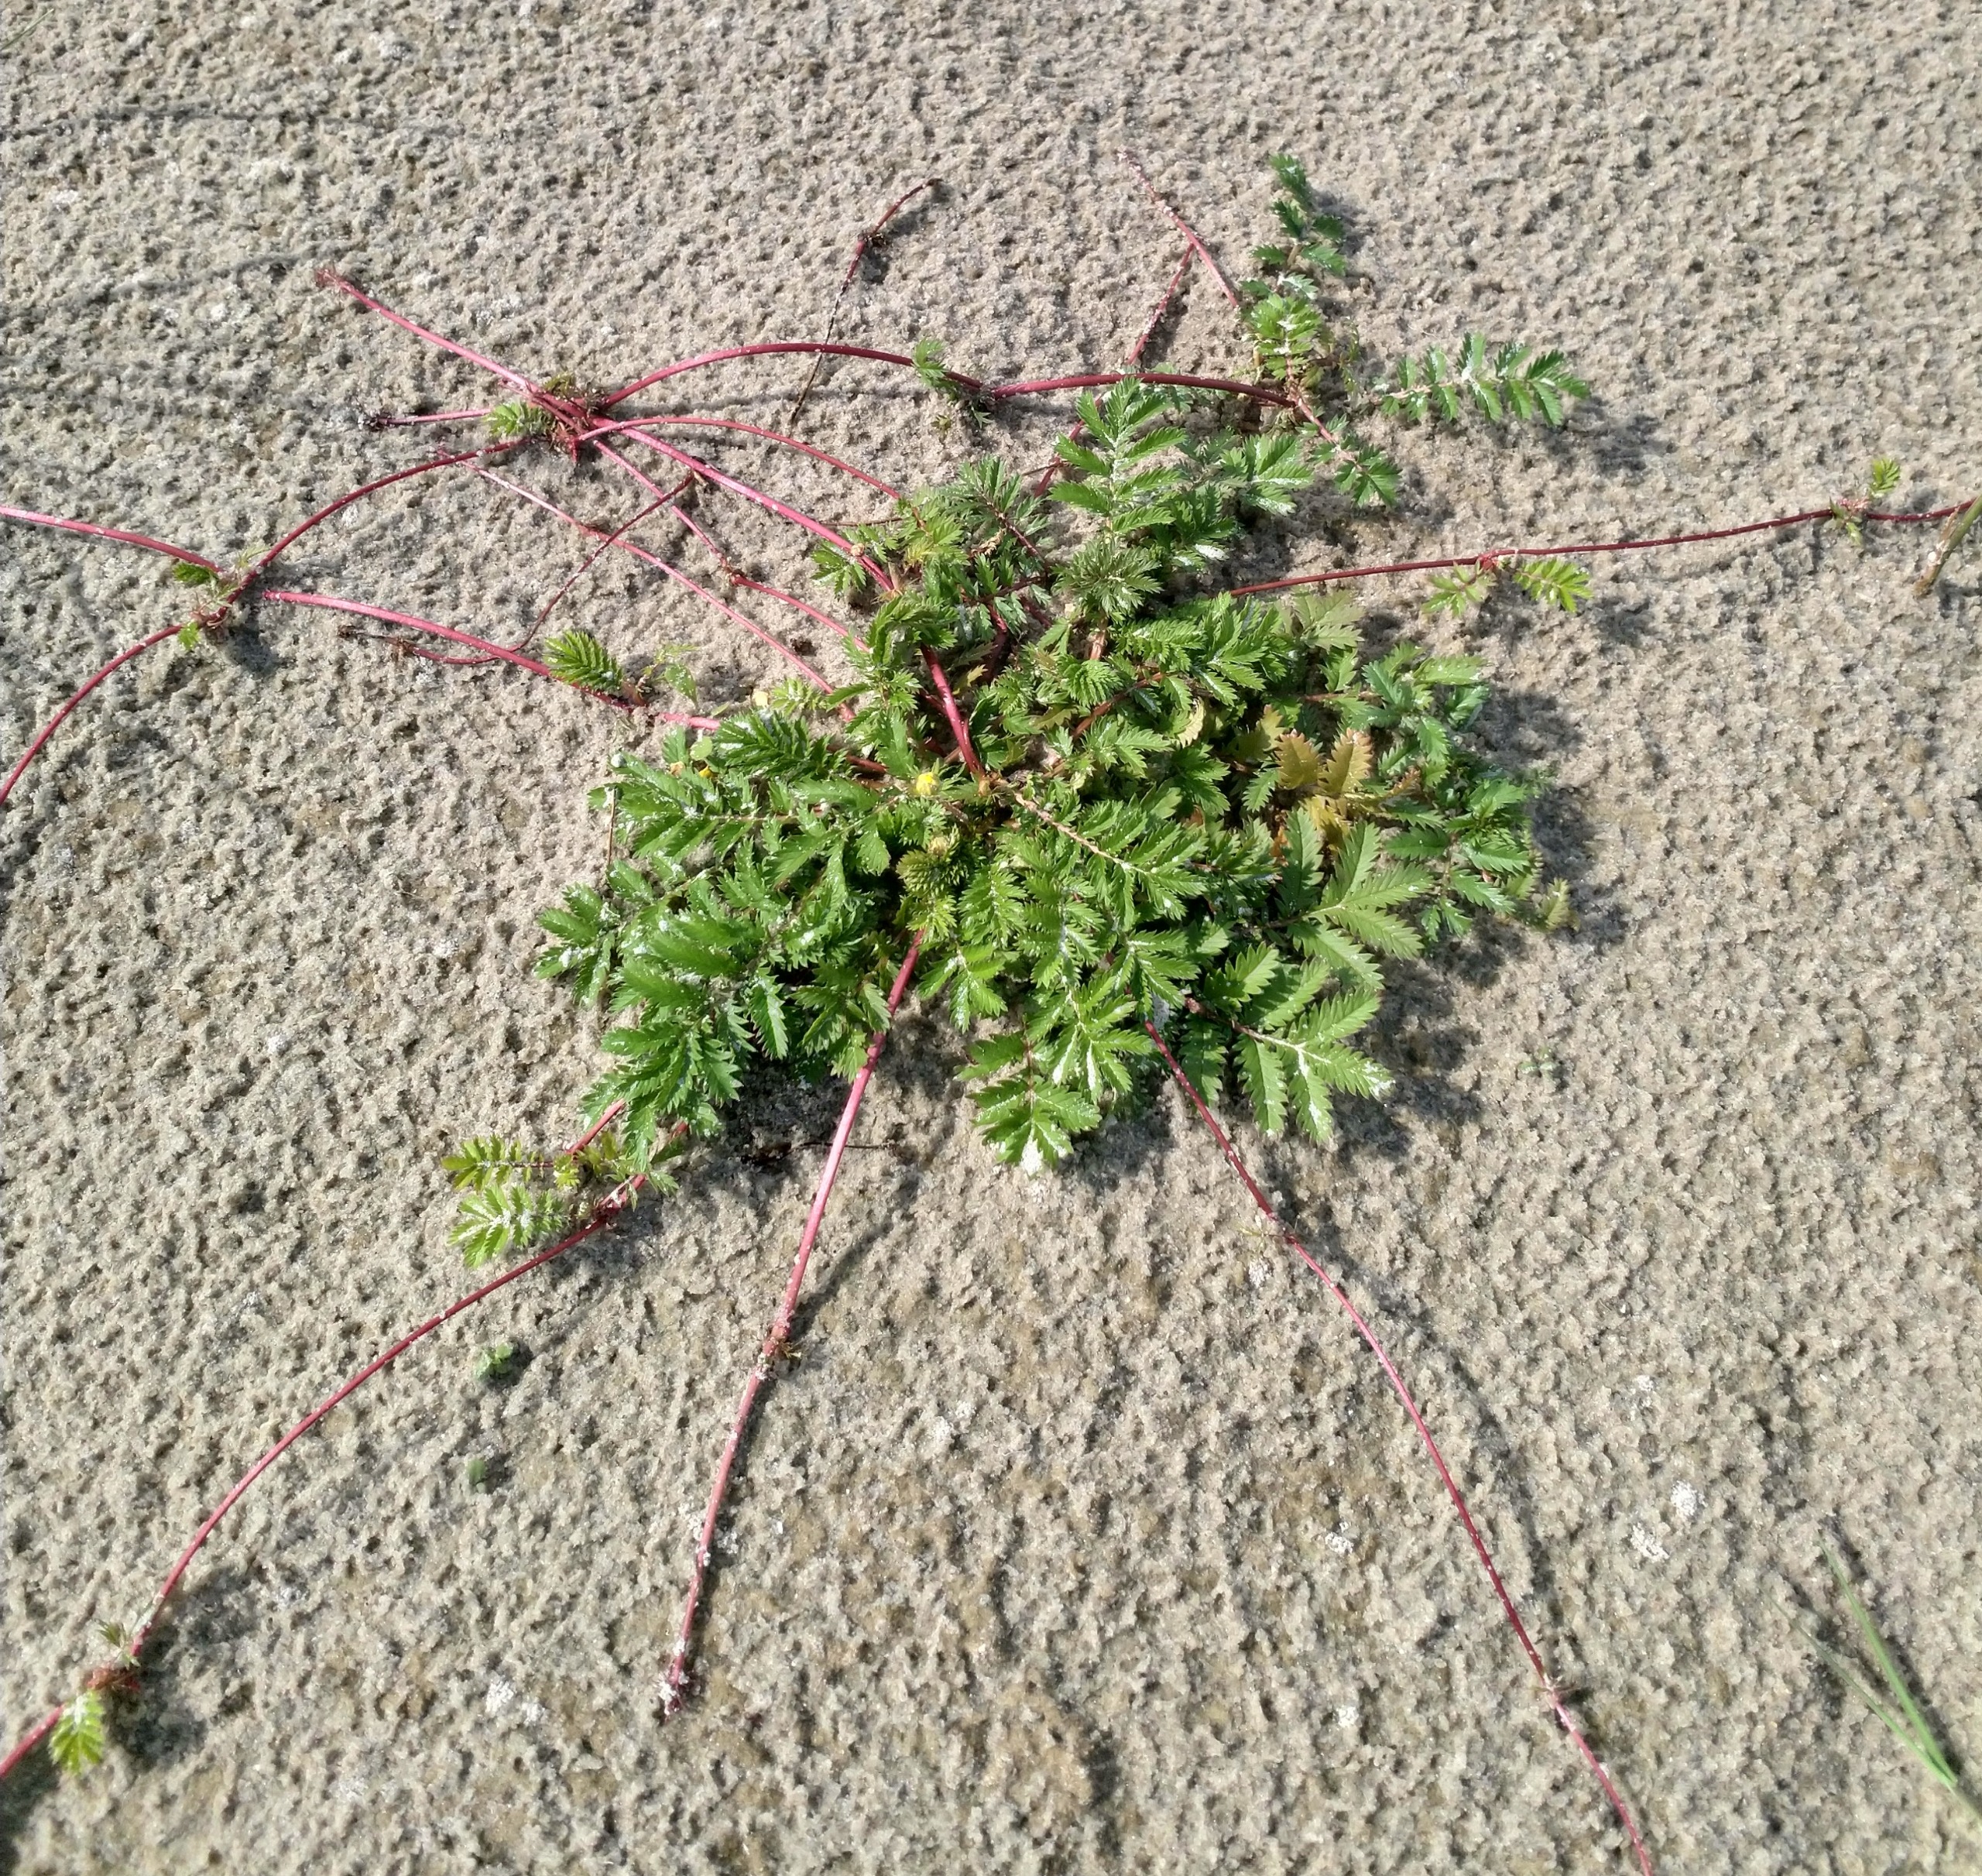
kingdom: Plantae
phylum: Tracheophyta
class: Magnoliopsida
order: Rosales
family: Rosaceae
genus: Argentina
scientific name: Argentina anserina
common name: Gåsepotentil
